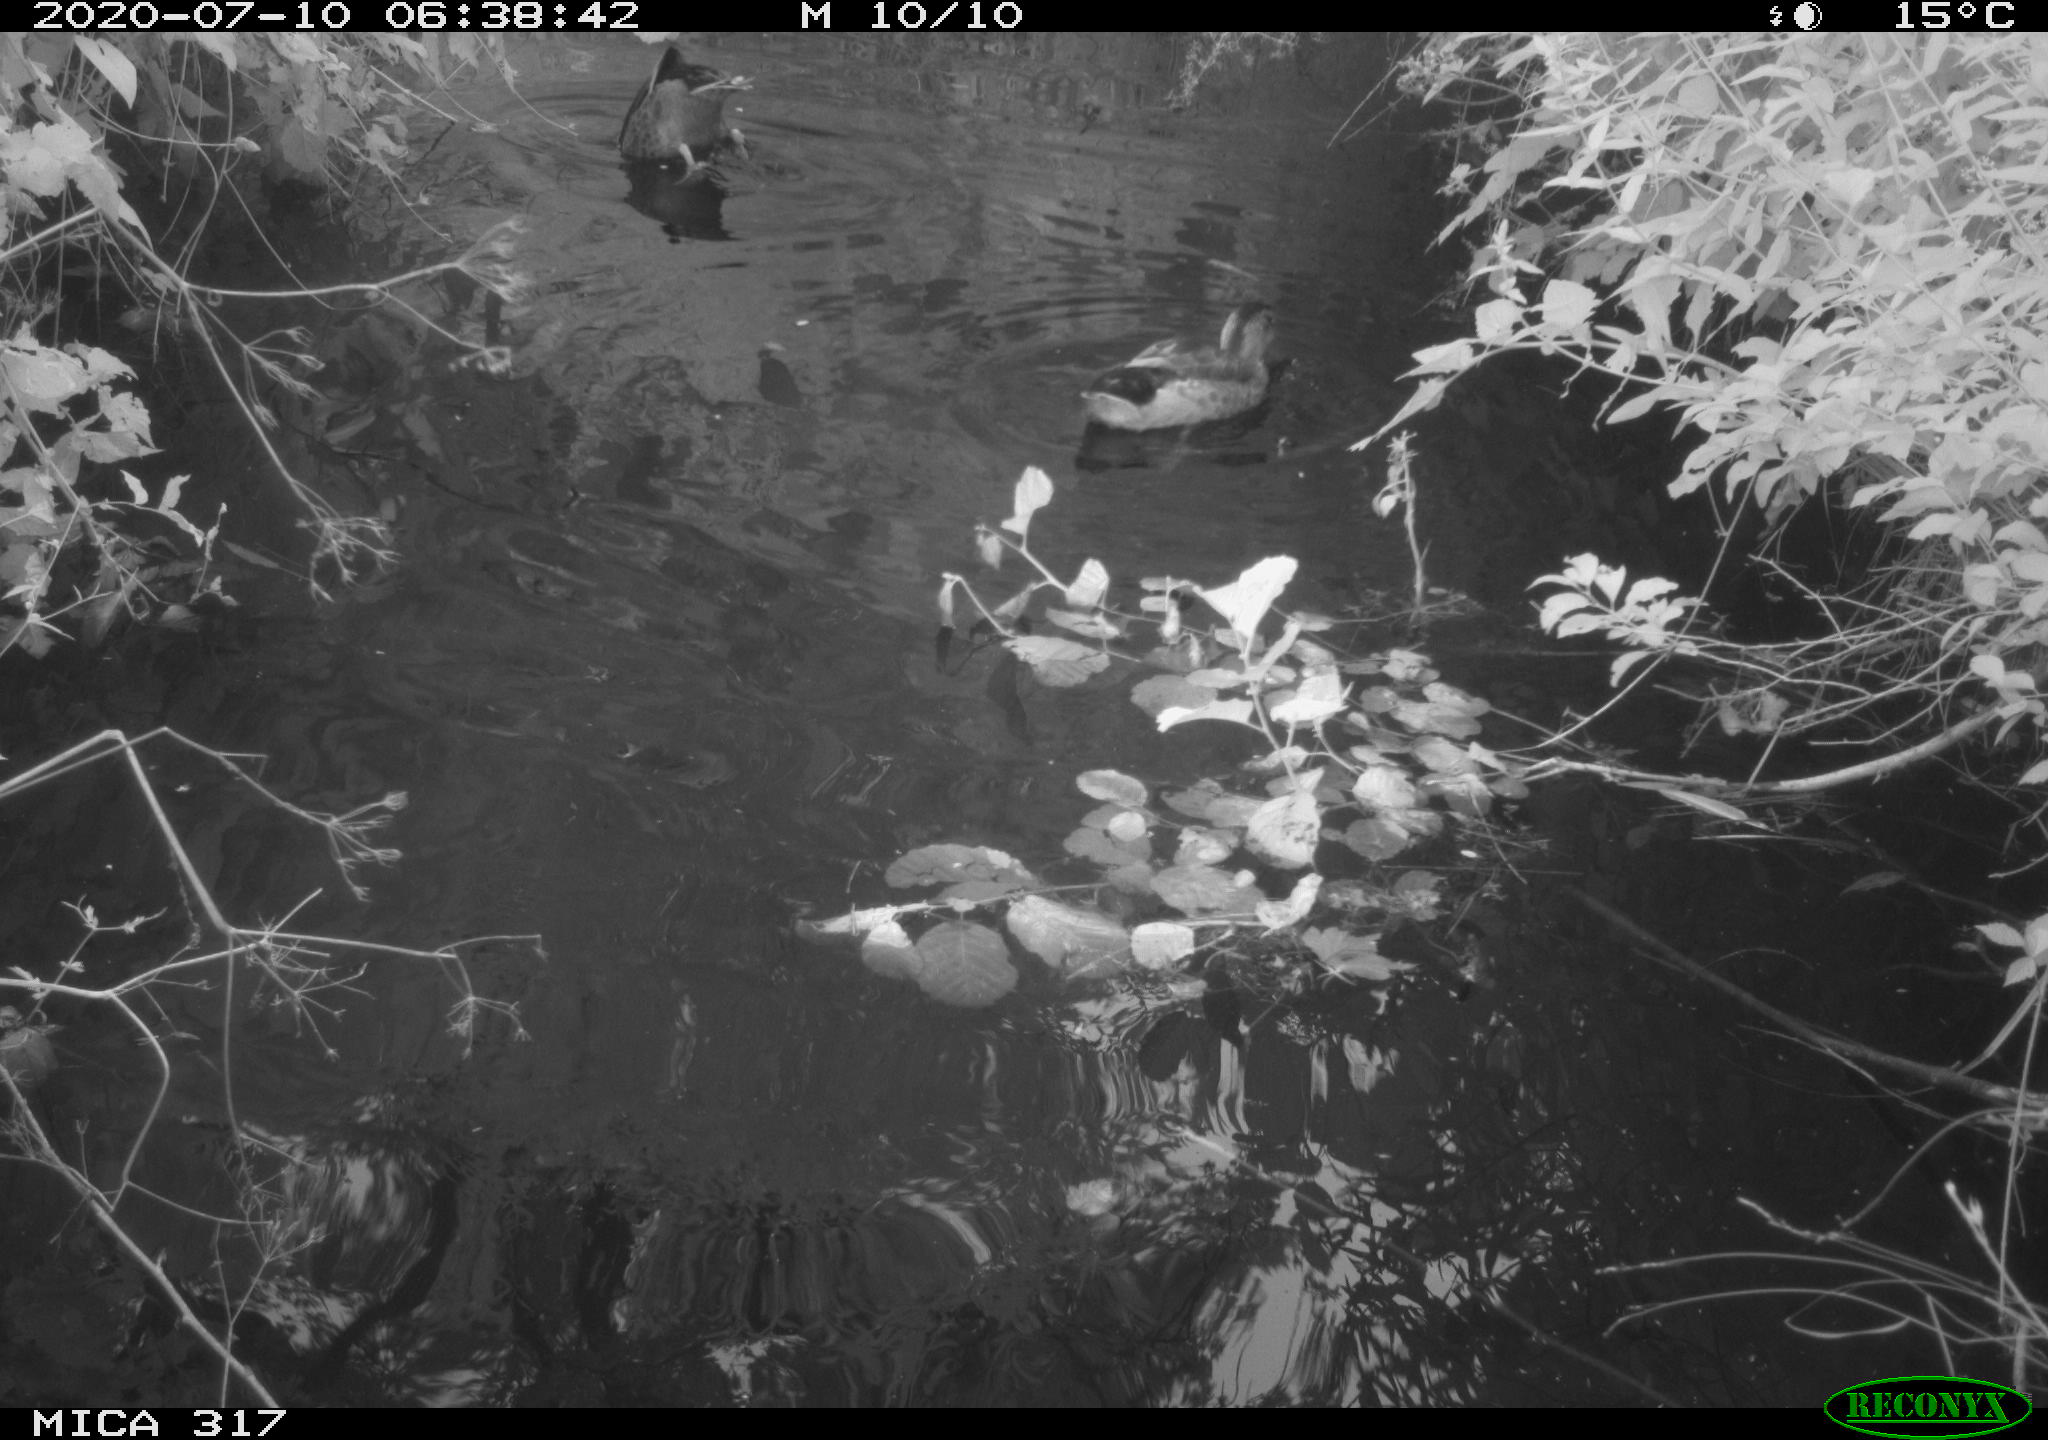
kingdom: Animalia
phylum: Chordata
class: Aves
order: Anseriformes
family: Anatidae
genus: Anas
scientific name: Anas platyrhynchos
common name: Mallard
